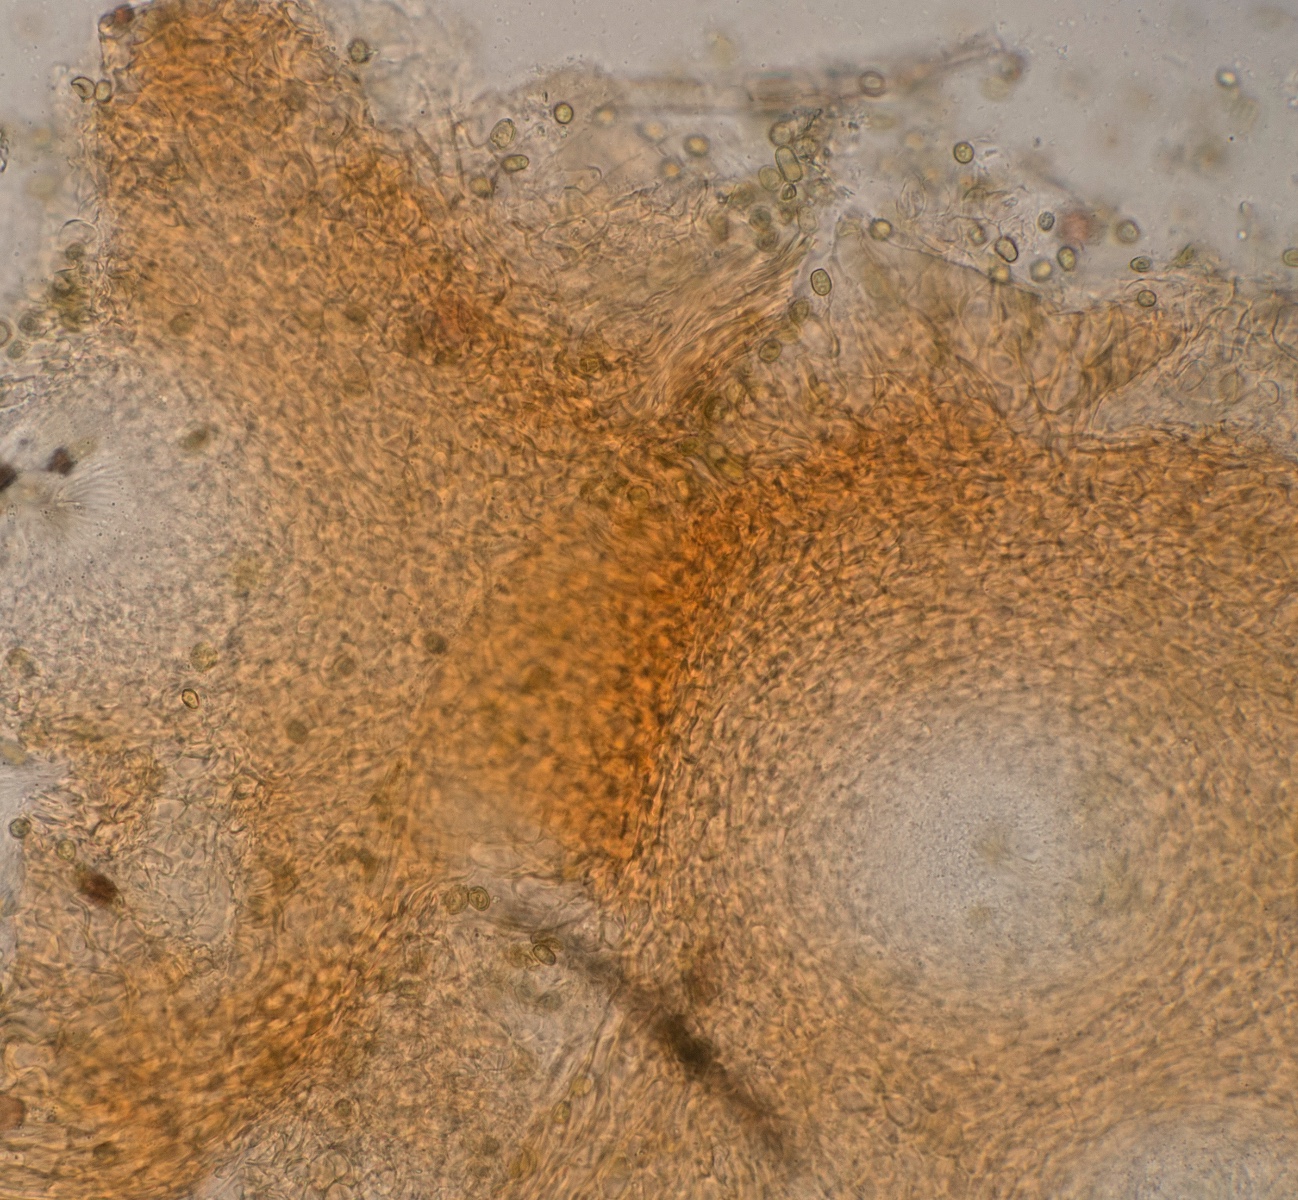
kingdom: Fungi
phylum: Ascomycota
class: Sordariomycetes
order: Hypocreales
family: Hypocreaceae
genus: Trichoderma
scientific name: Trichoderma strictipile
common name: grønprikket kødkerne
